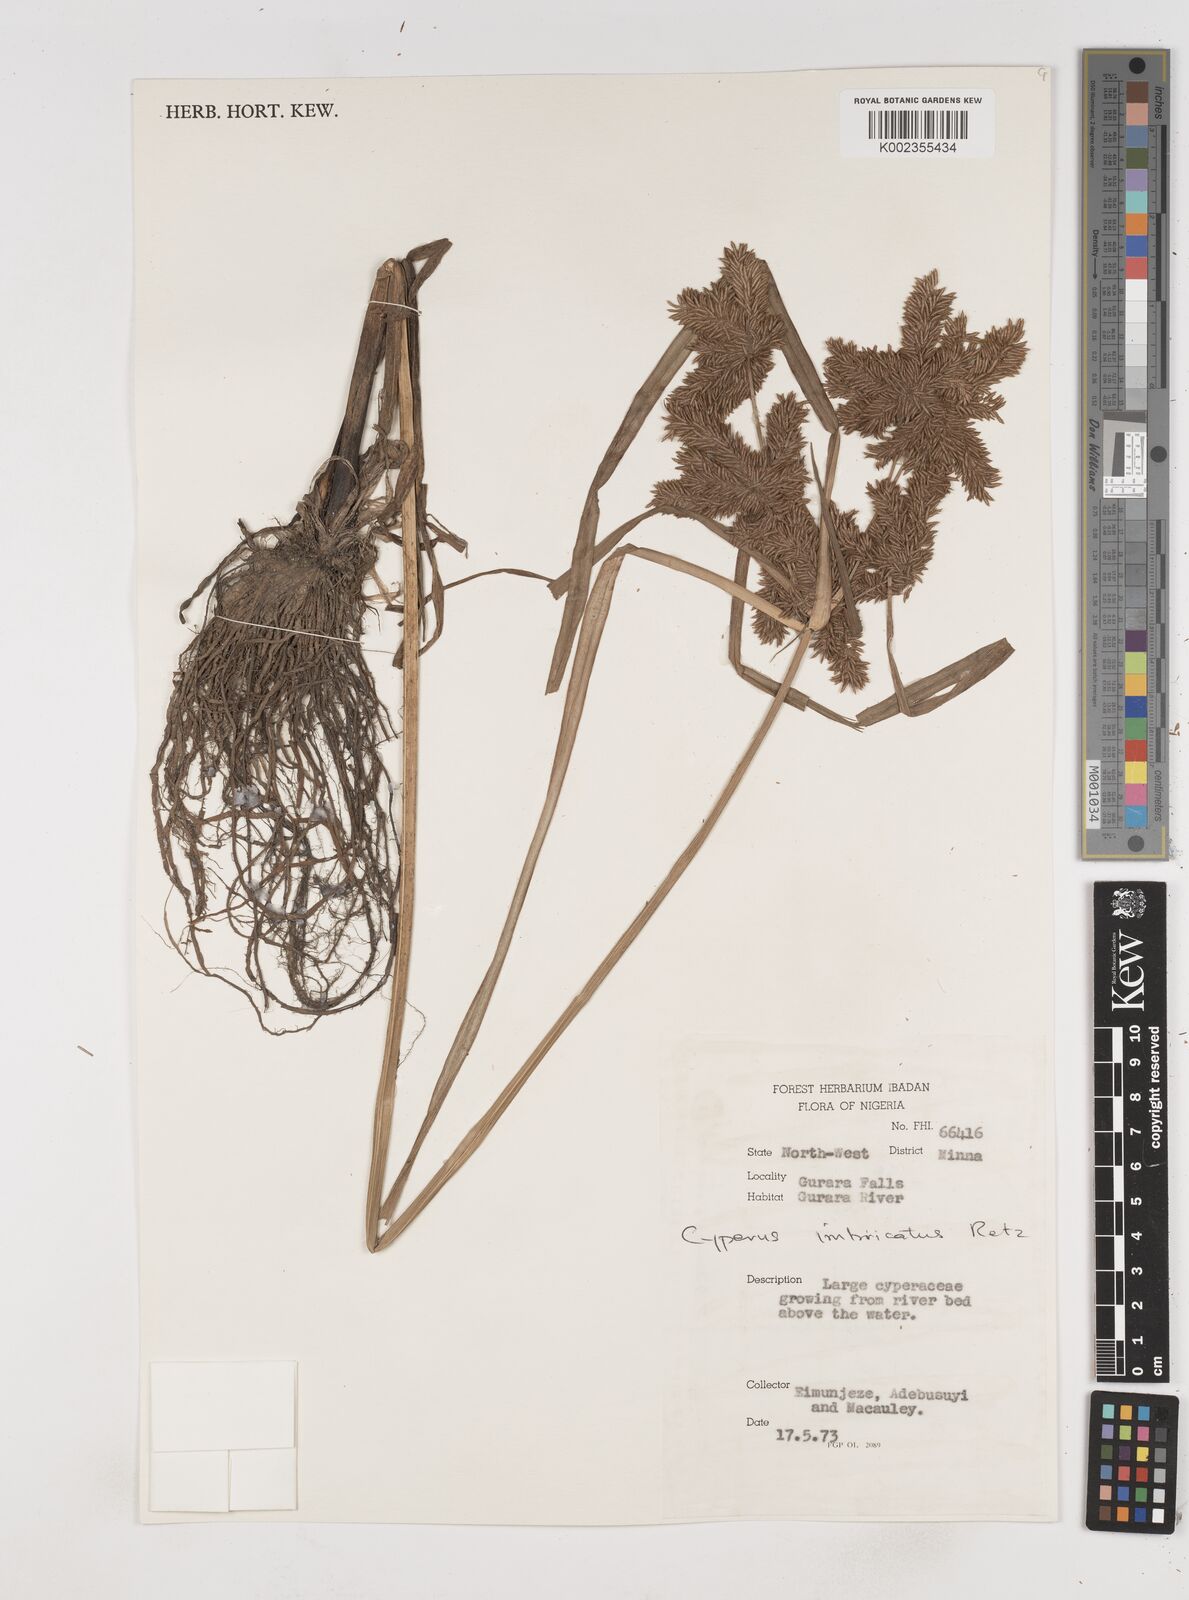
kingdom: Plantae
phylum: Tracheophyta
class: Liliopsida
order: Poales
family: Cyperaceae
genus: Cyperus
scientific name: Cyperus imbricatus
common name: Shingle flatsedge
